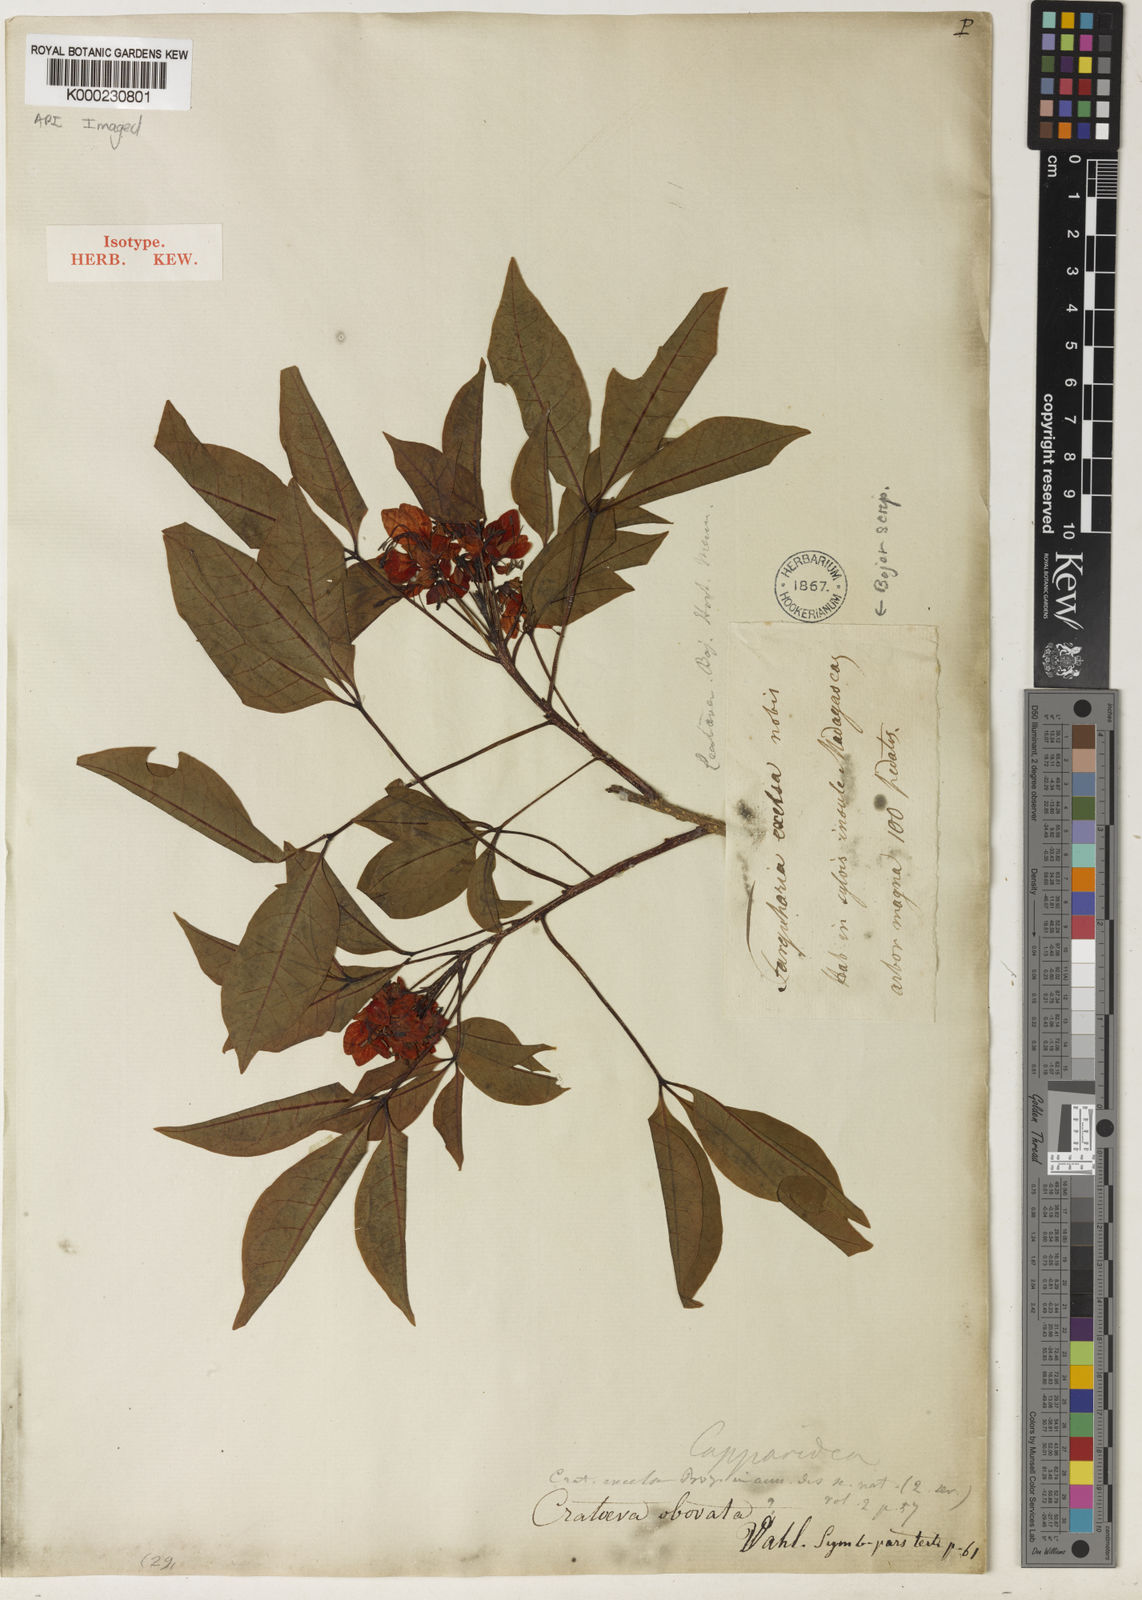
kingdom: Plantae
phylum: Tracheophyta
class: Magnoliopsida
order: Brassicales
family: Capparaceae
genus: Crateva
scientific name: Crateva excelsa
